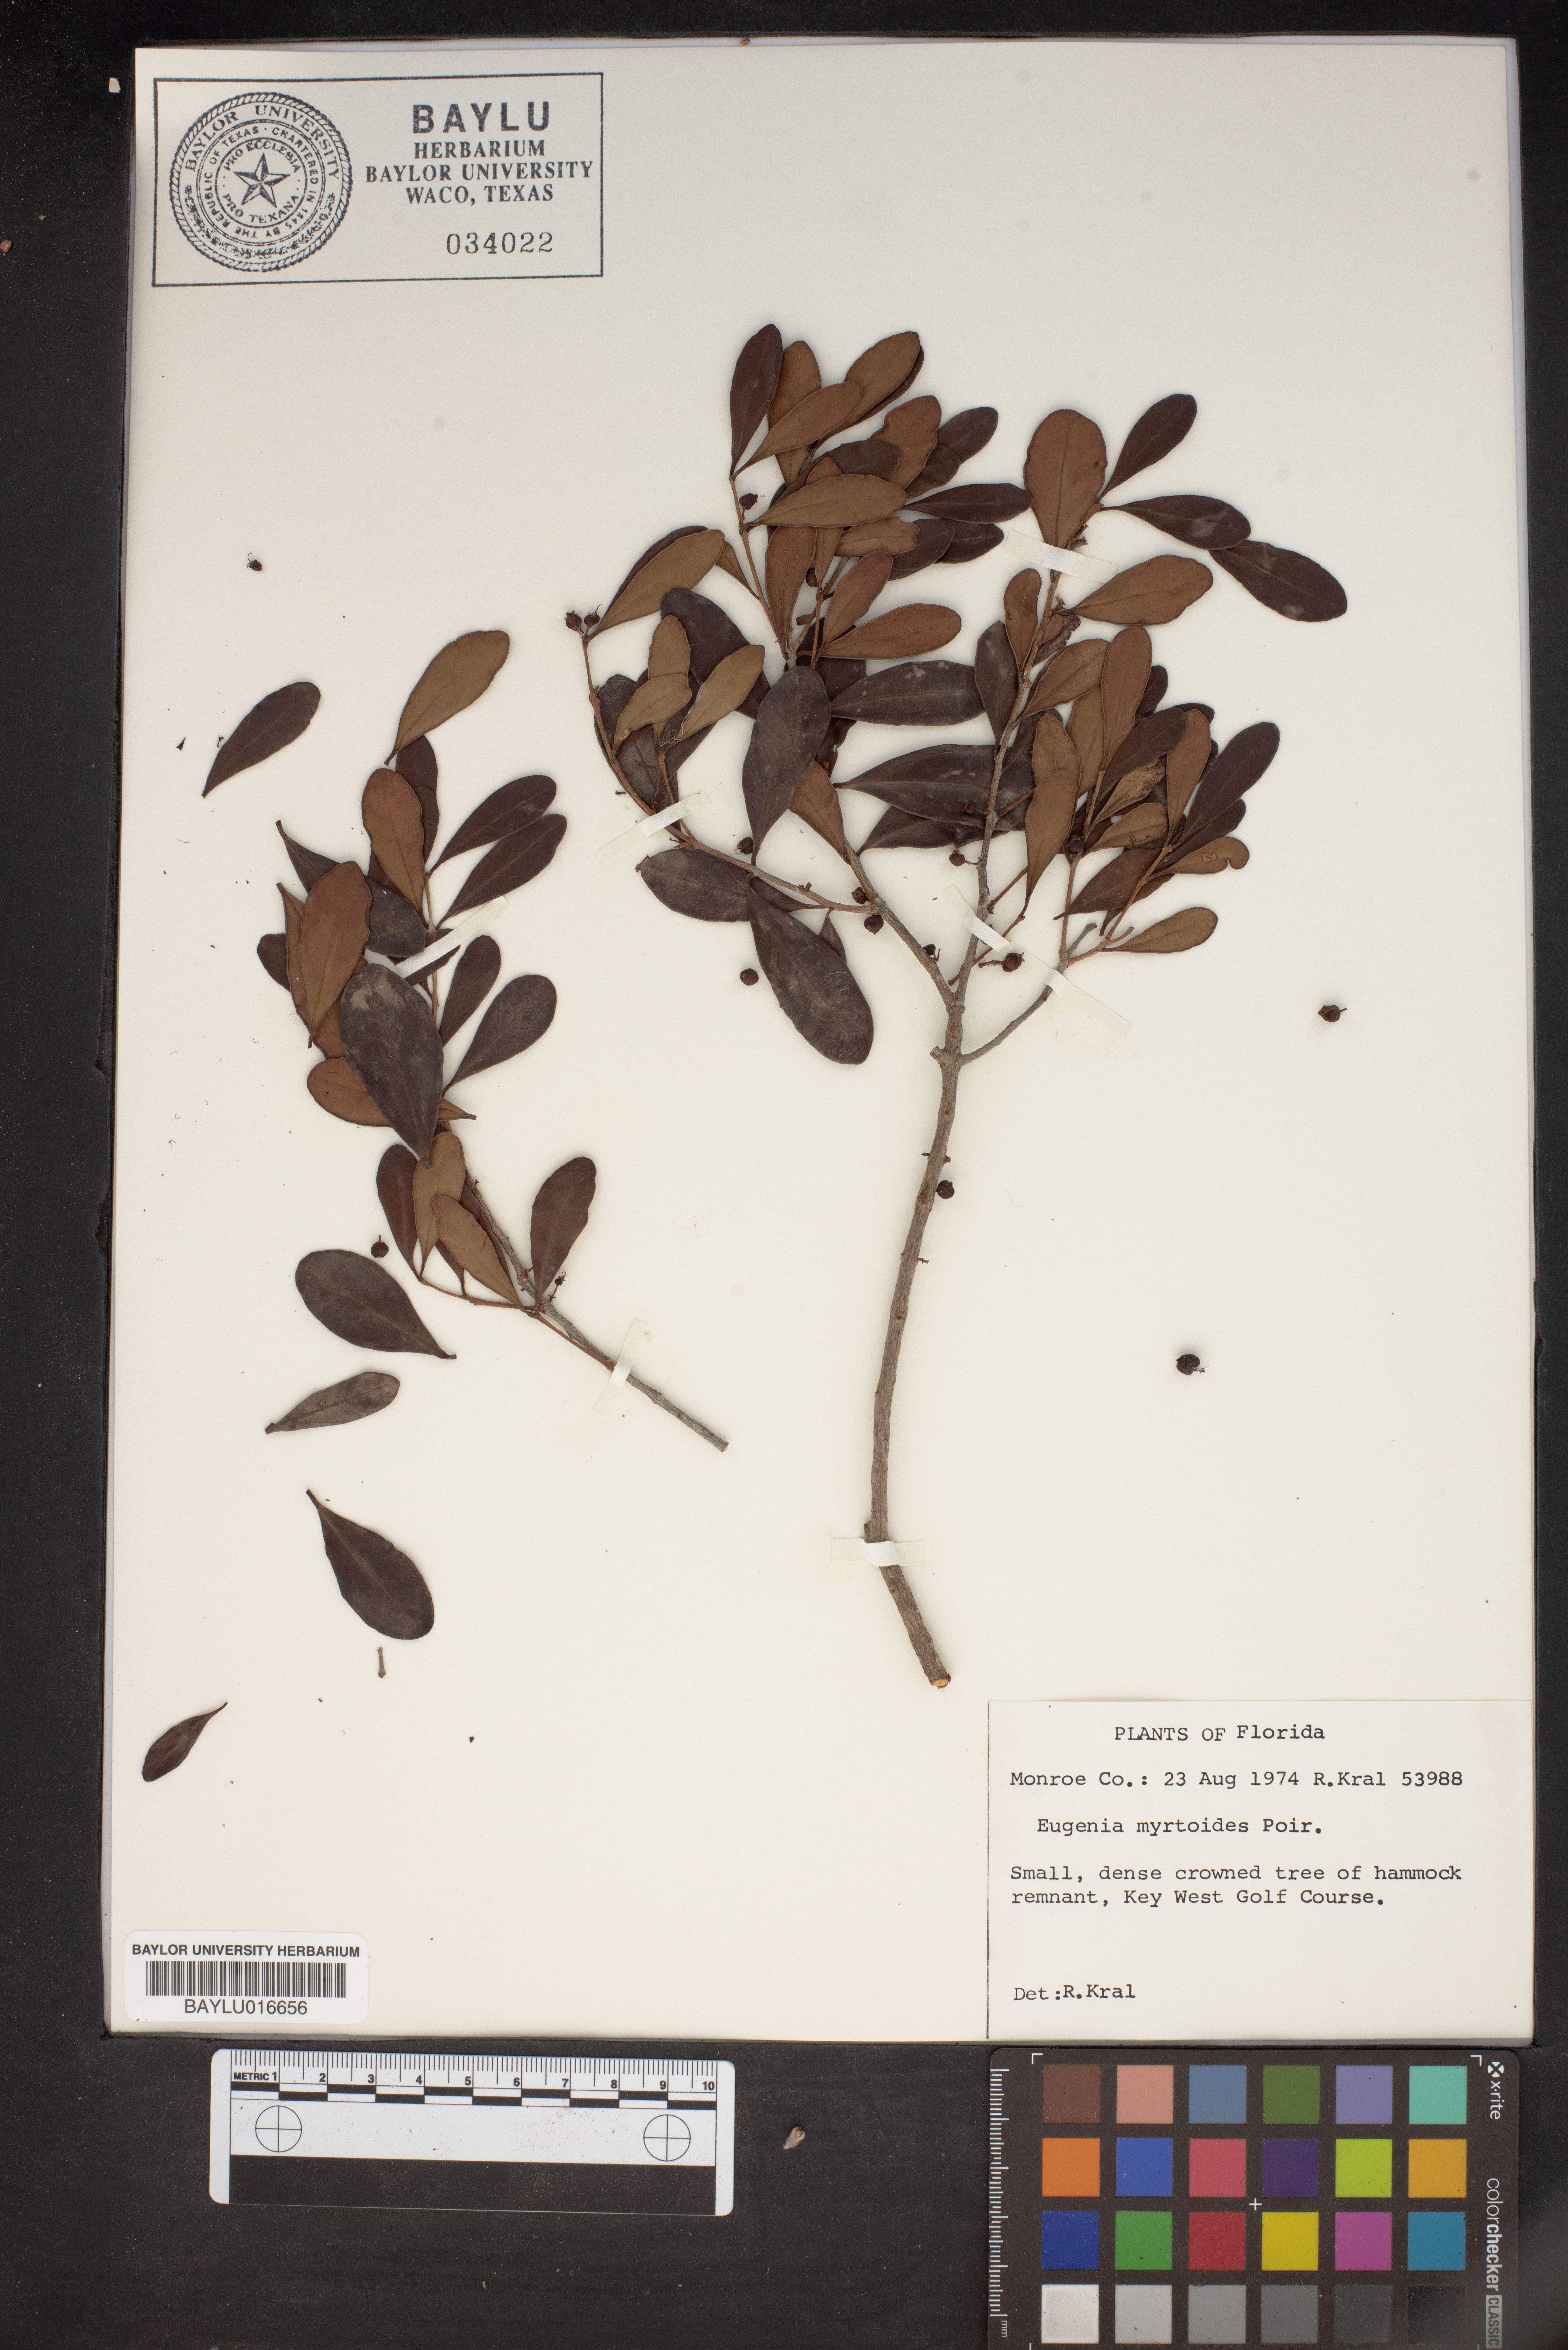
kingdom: Plantae
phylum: Tracheophyta
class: Magnoliopsida
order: Myrtales
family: Myrtaceae
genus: Eugenia
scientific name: Eugenia coronata
